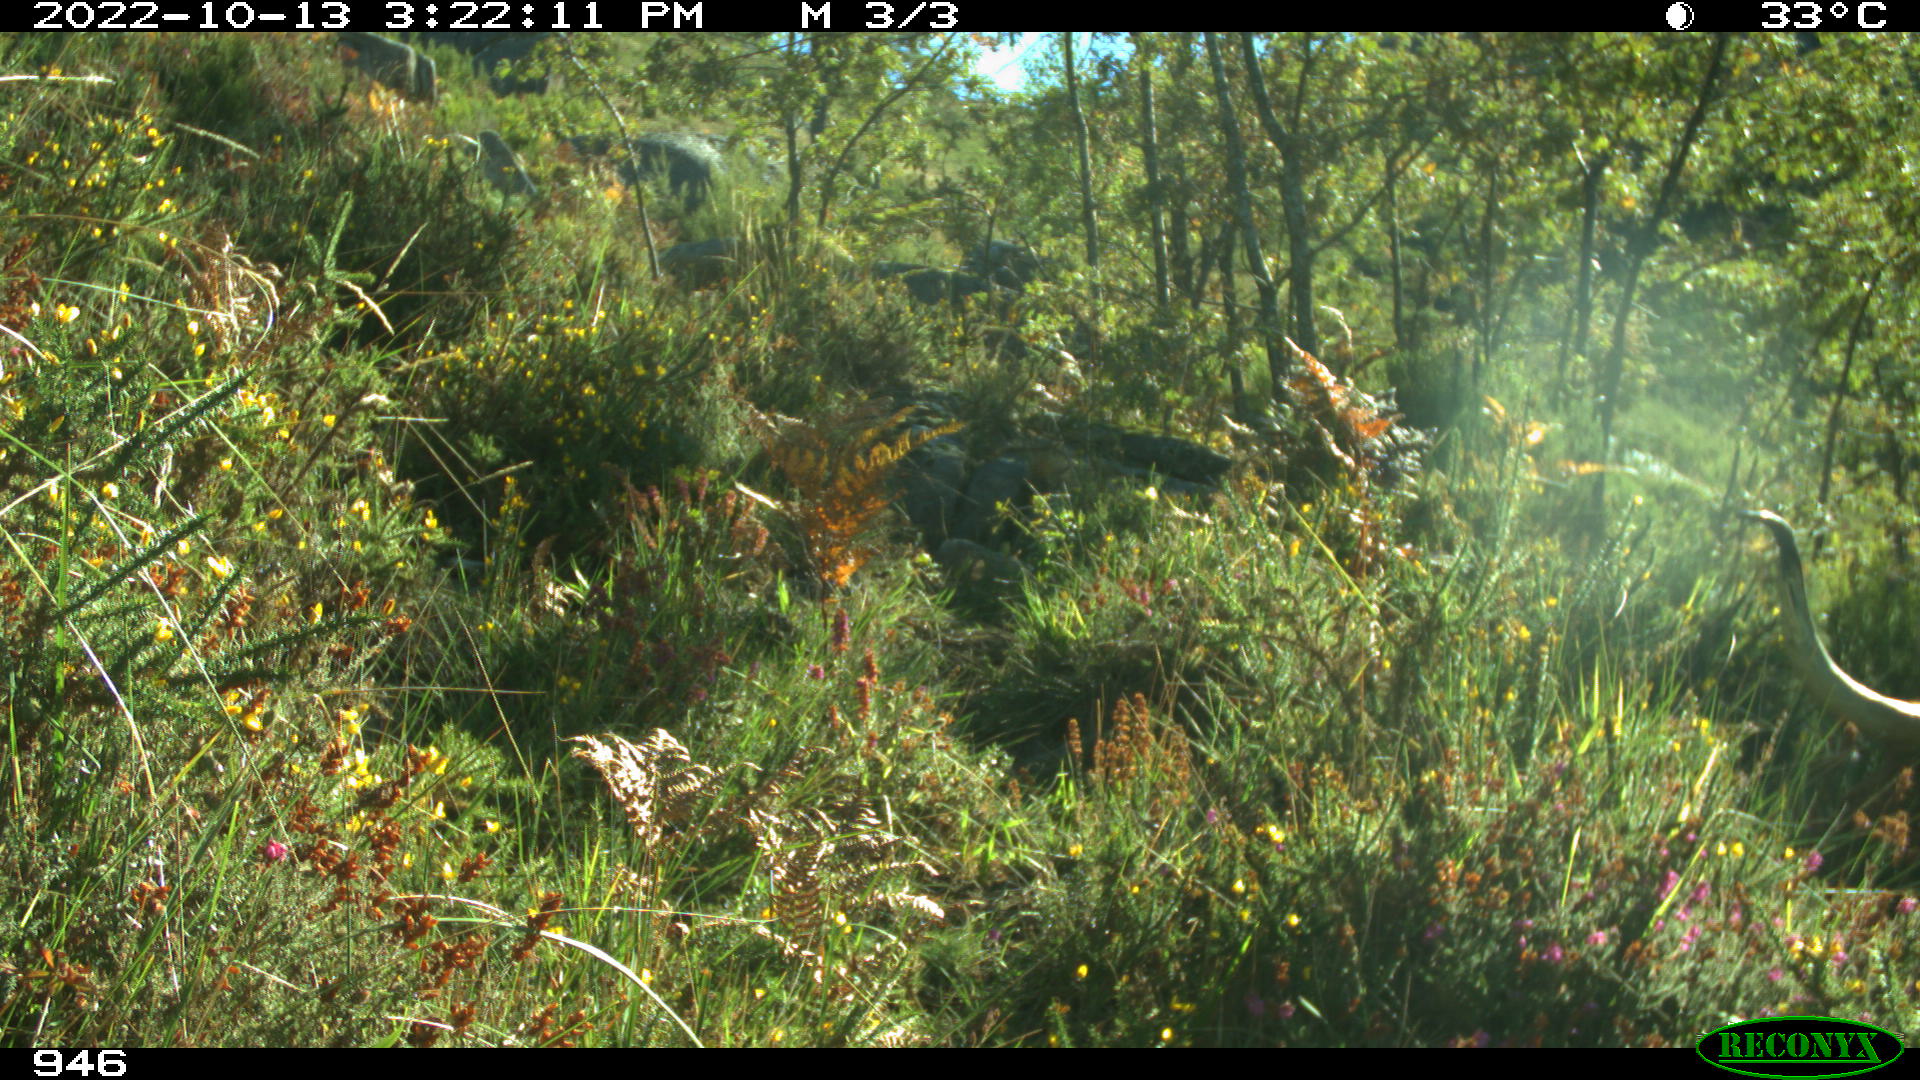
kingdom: Animalia
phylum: Chordata
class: Mammalia
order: Artiodactyla
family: Bovidae
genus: Bos
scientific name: Bos taurus
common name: Domesticated cattle
